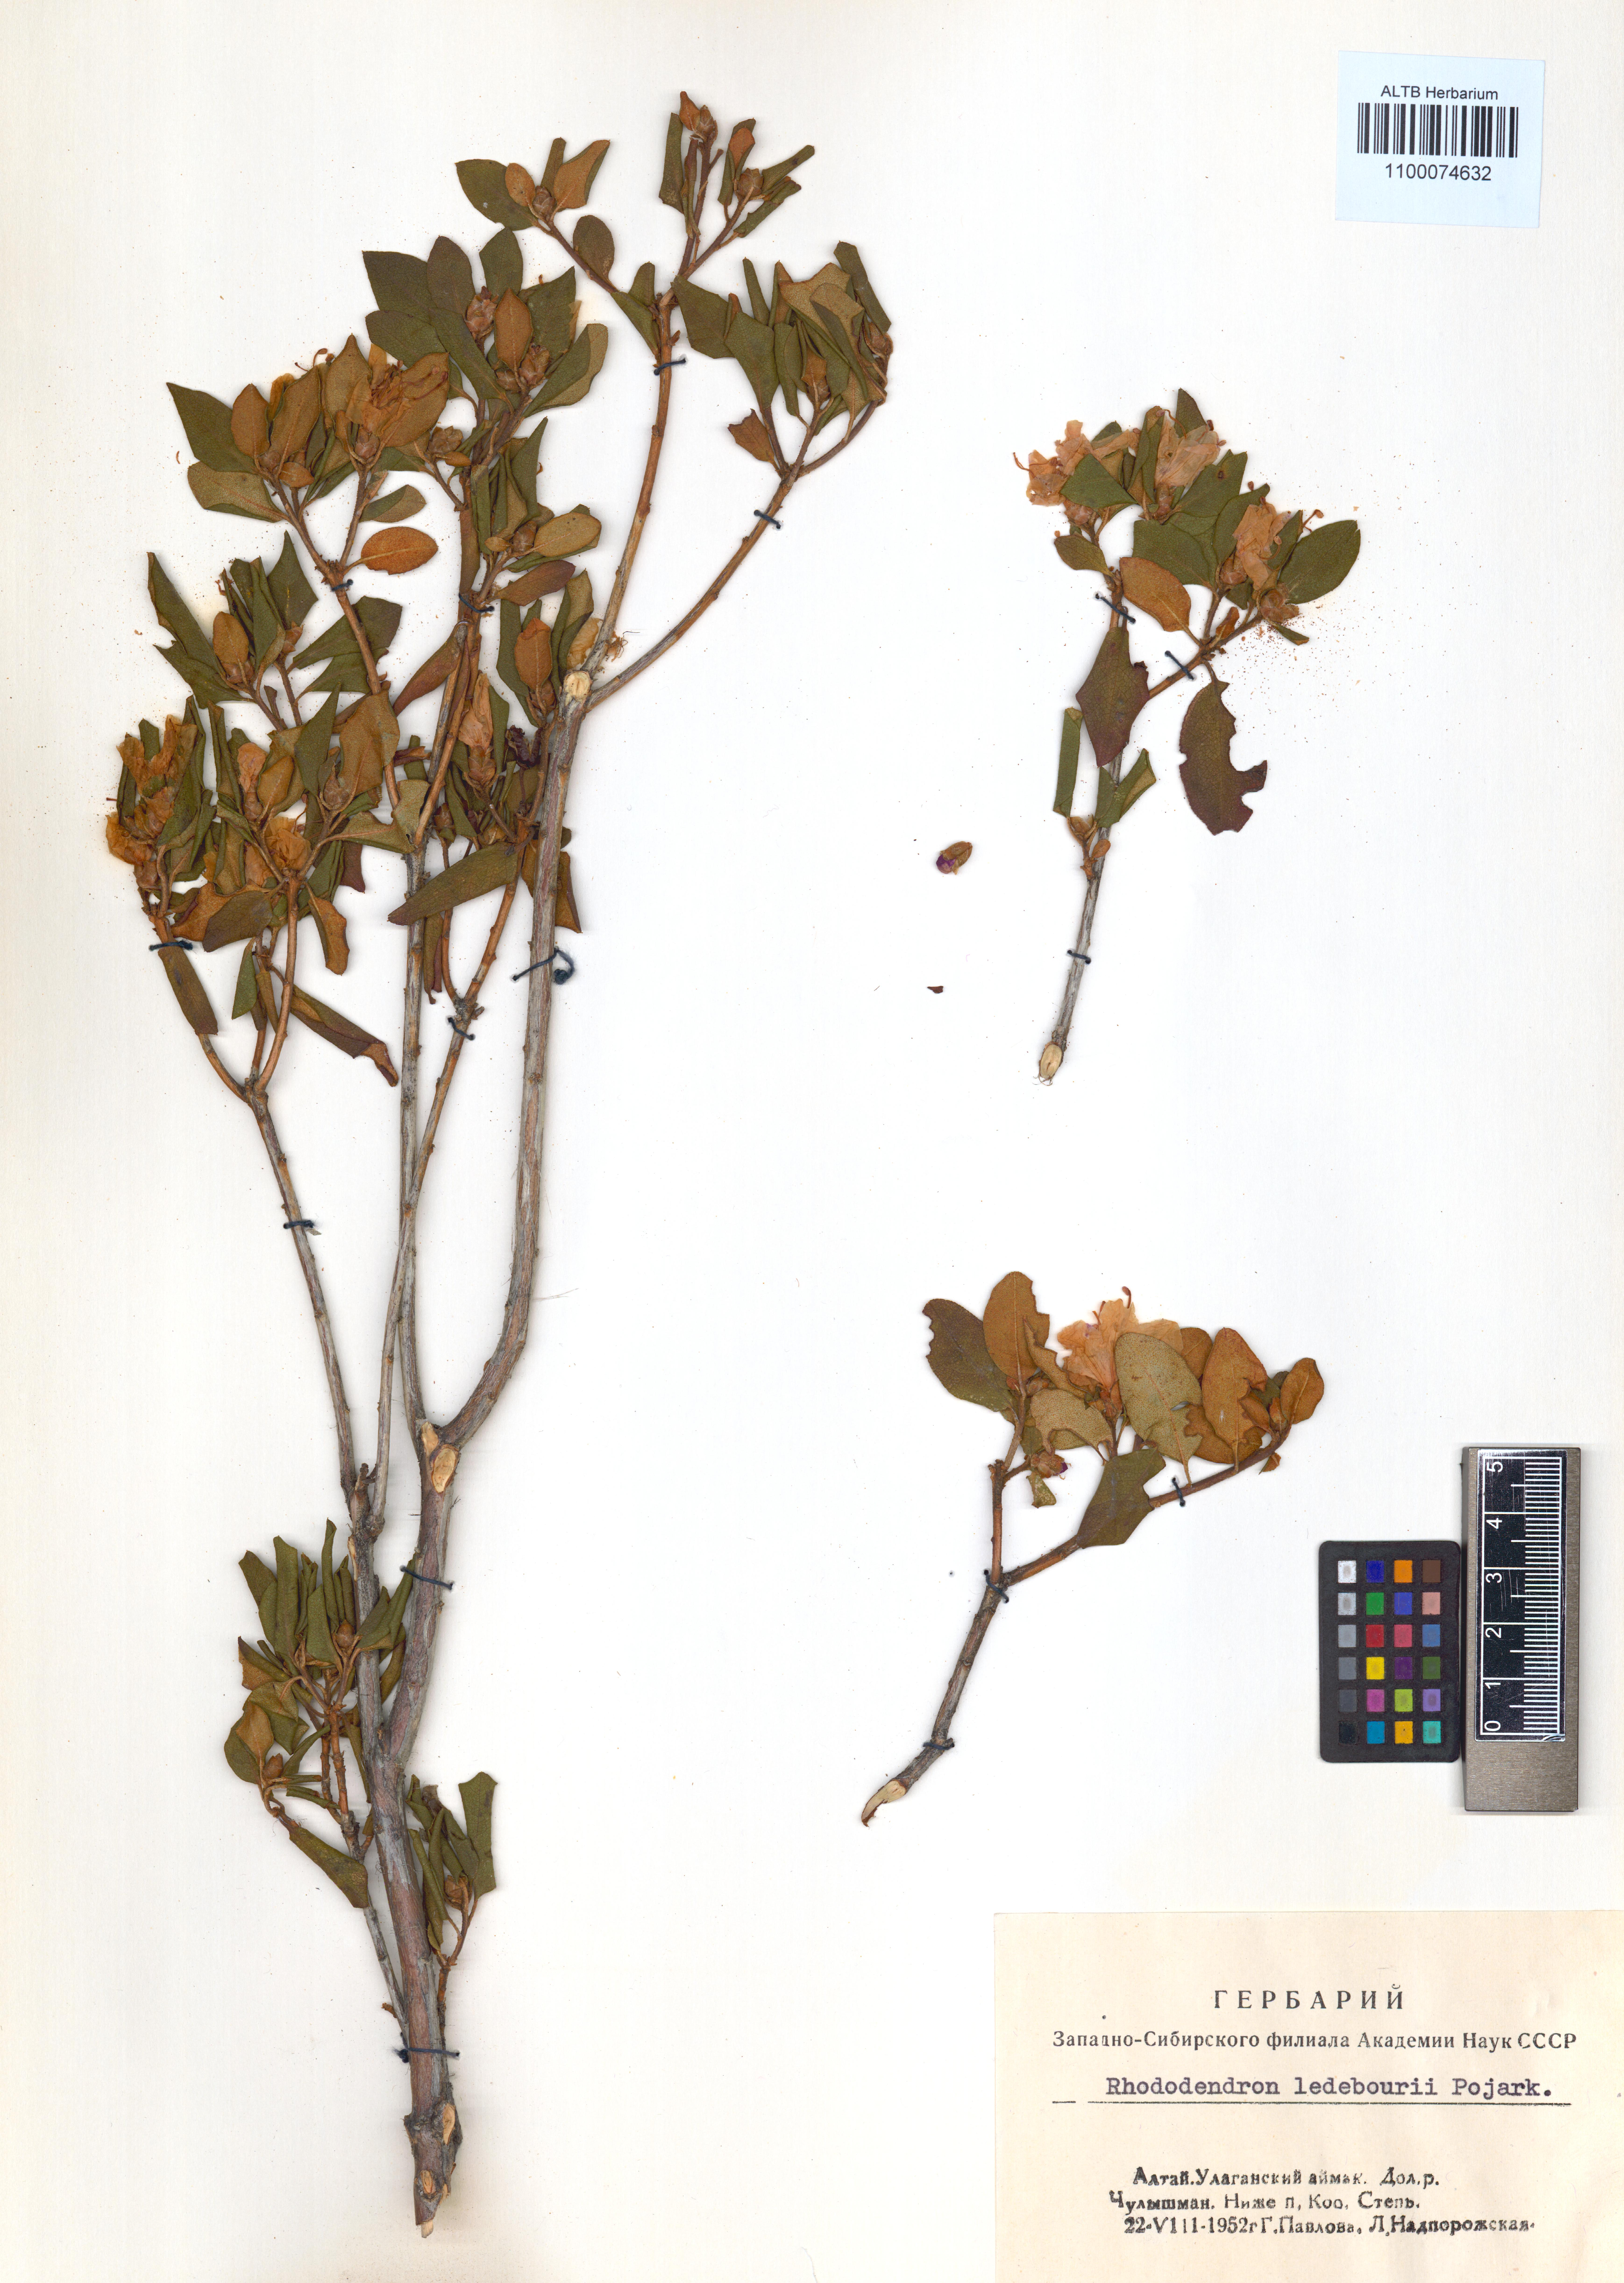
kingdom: Plantae
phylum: Tracheophyta
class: Magnoliopsida
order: Ericales
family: Ericaceae
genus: Rhododendron
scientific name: Rhododendron dauricum
